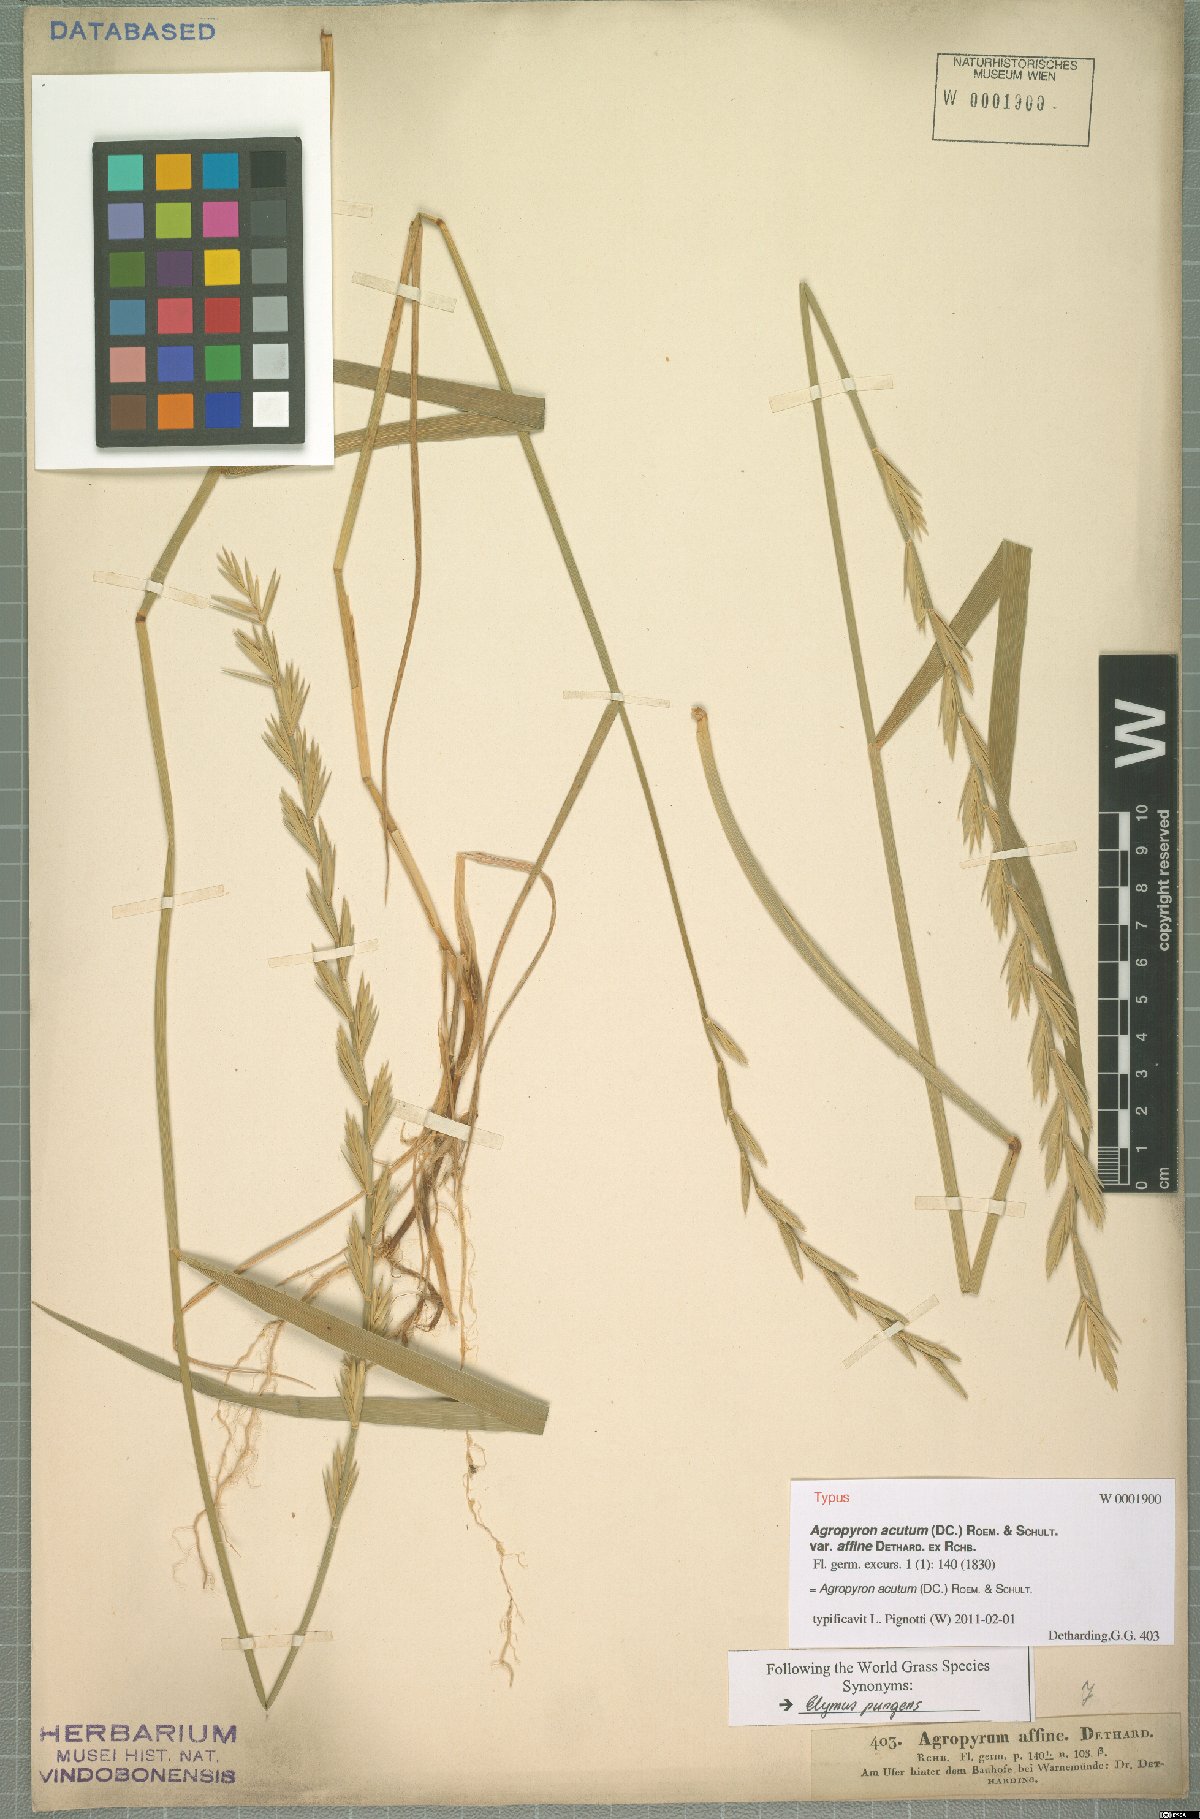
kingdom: Plantae
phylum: Tracheophyta
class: Liliopsida
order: Poales
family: Poaceae
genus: Thinopyrum
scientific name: Thinopyrum acutum
